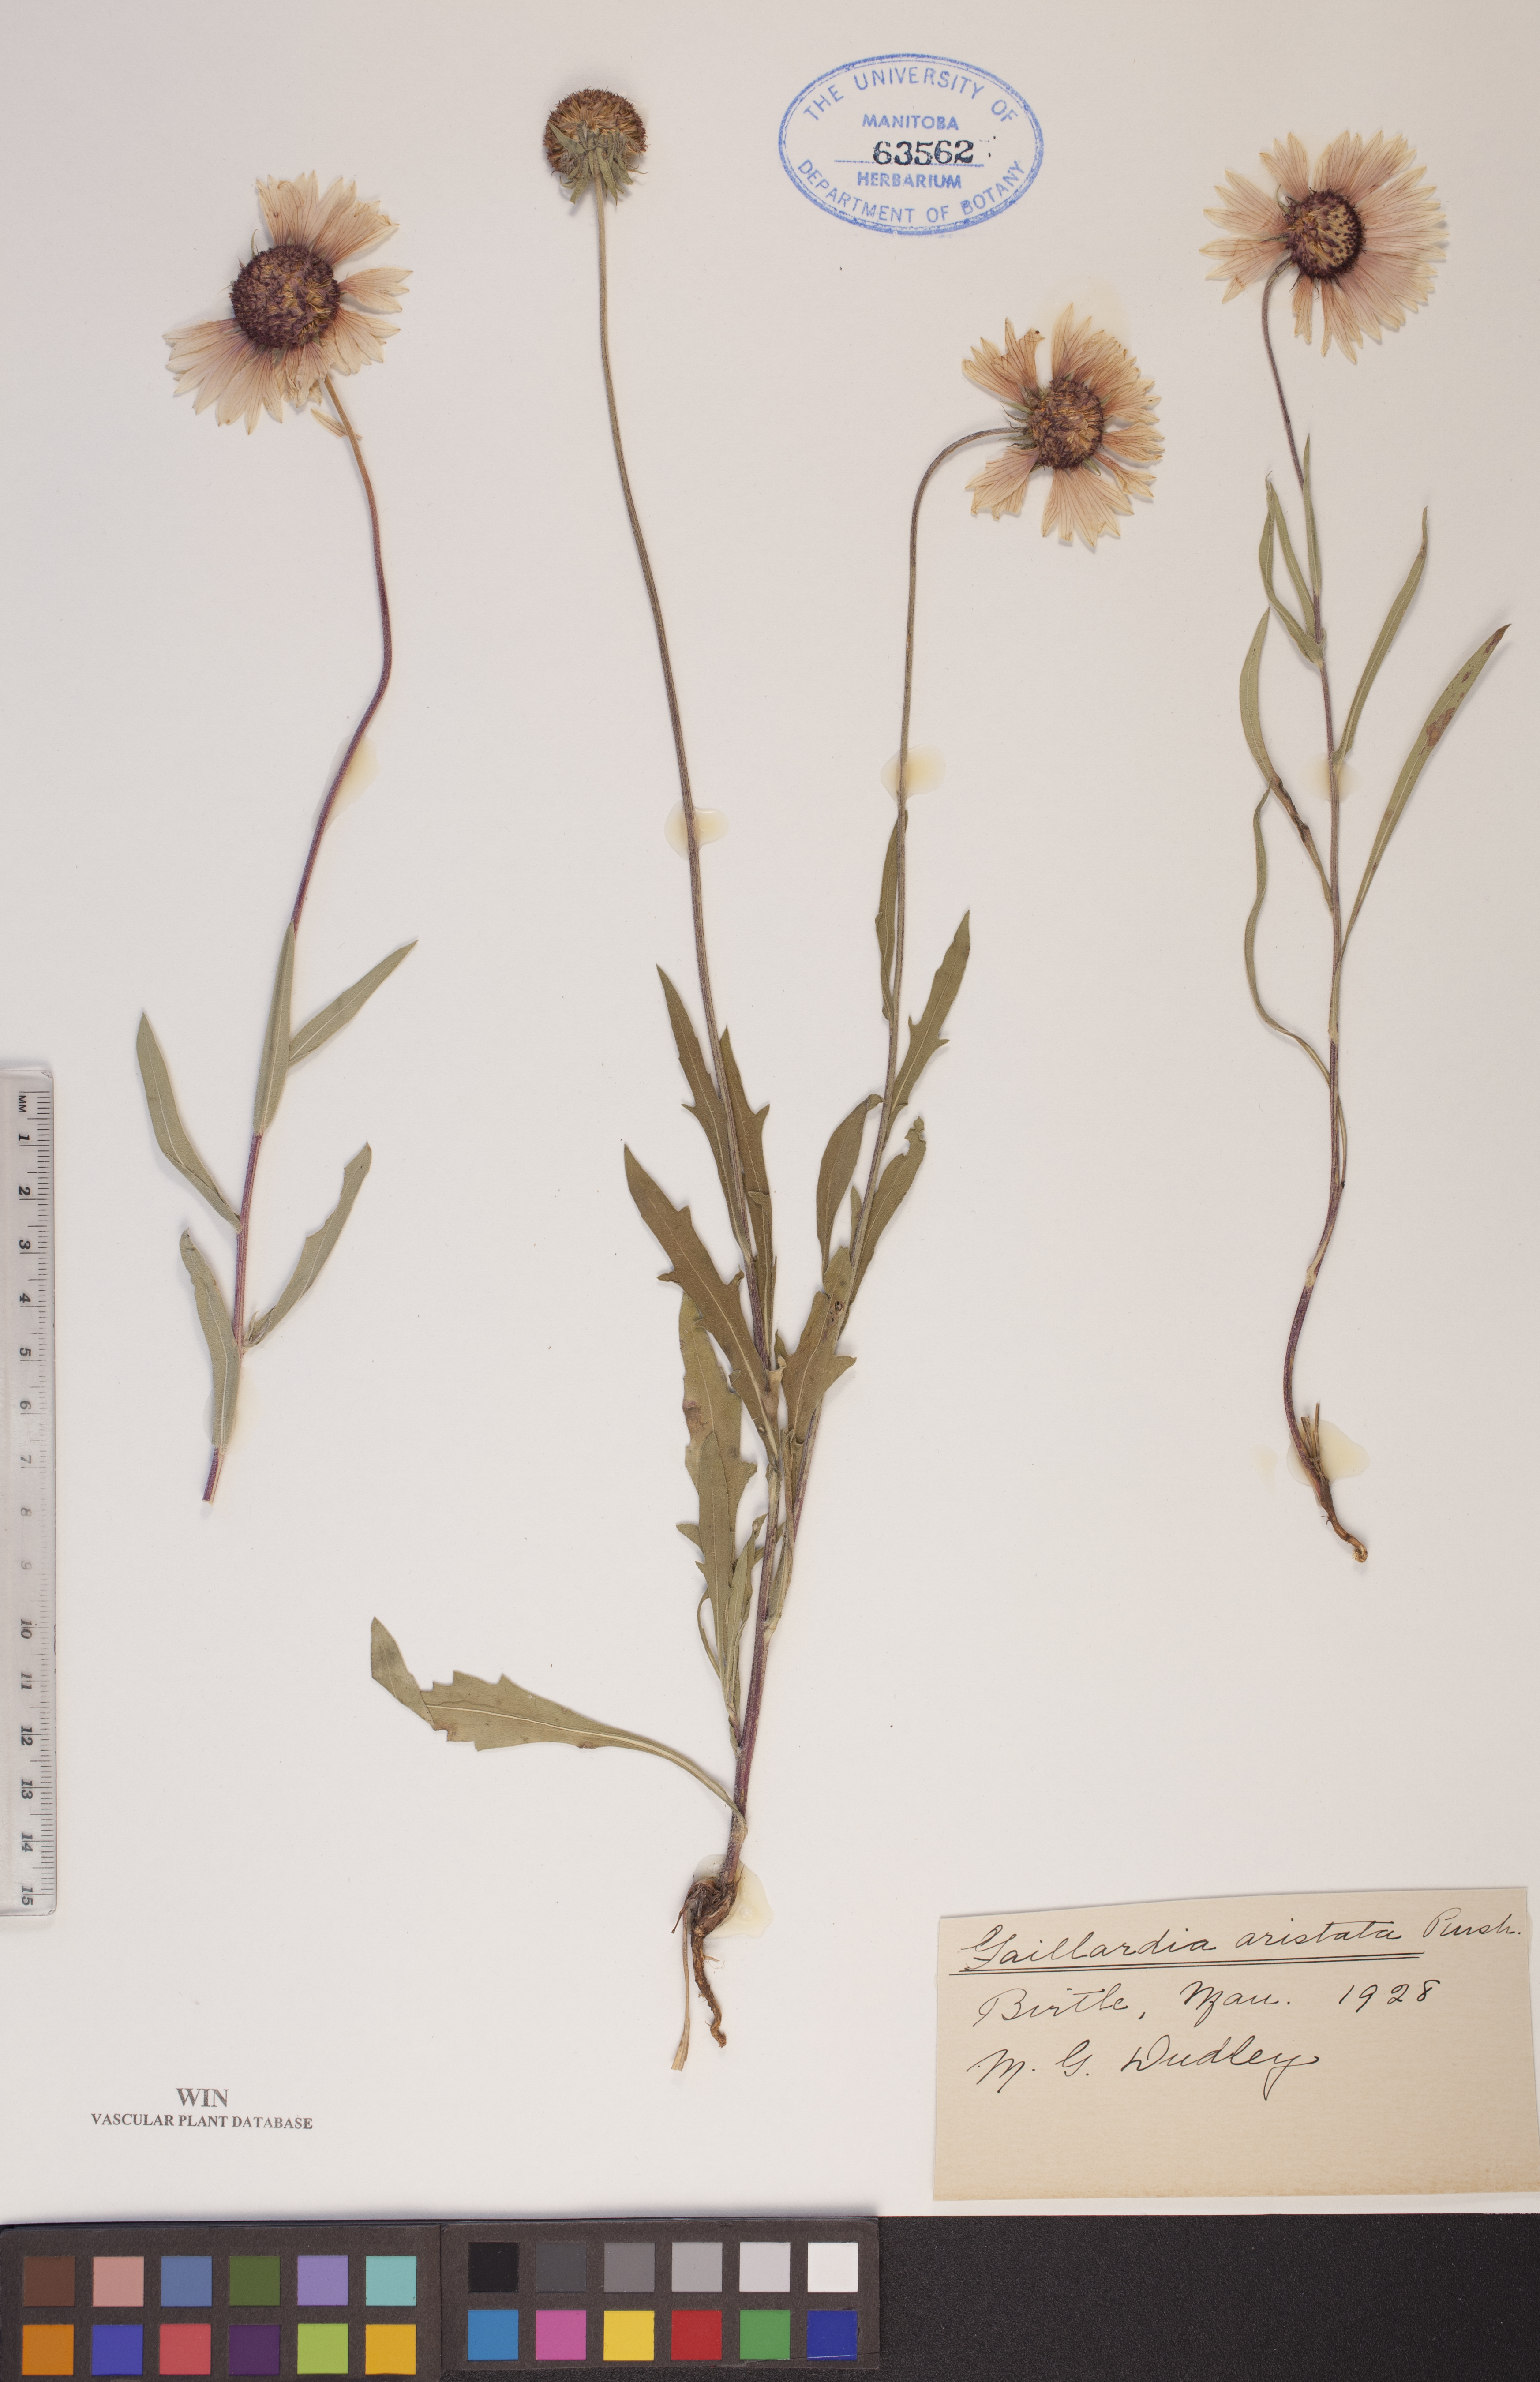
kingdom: Plantae
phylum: Tracheophyta
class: Magnoliopsida
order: Asterales
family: Asteraceae
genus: Gaillardia
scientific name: Gaillardia aristata
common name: Blanket-flower
